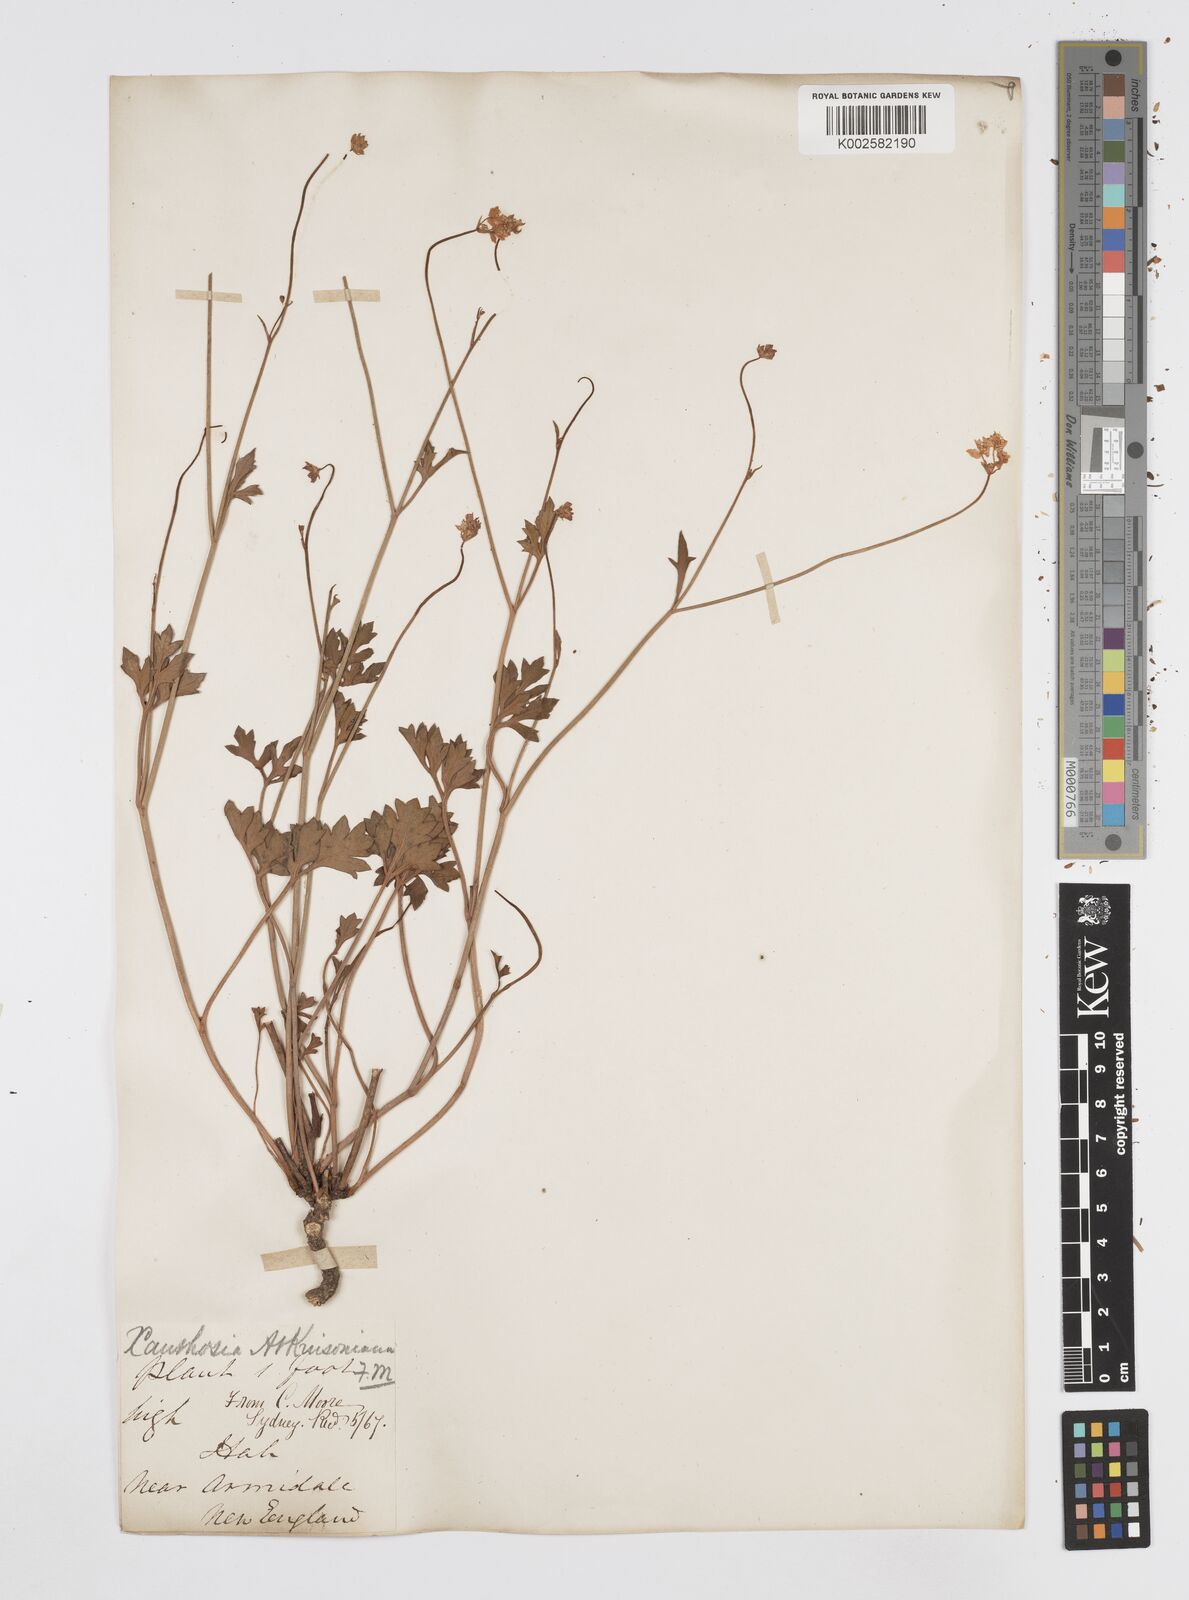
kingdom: Plantae
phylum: Tracheophyta
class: Magnoliopsida
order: Apiales
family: Apiaceae
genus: Xanthosia
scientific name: Xanthosia atkinsoniana
